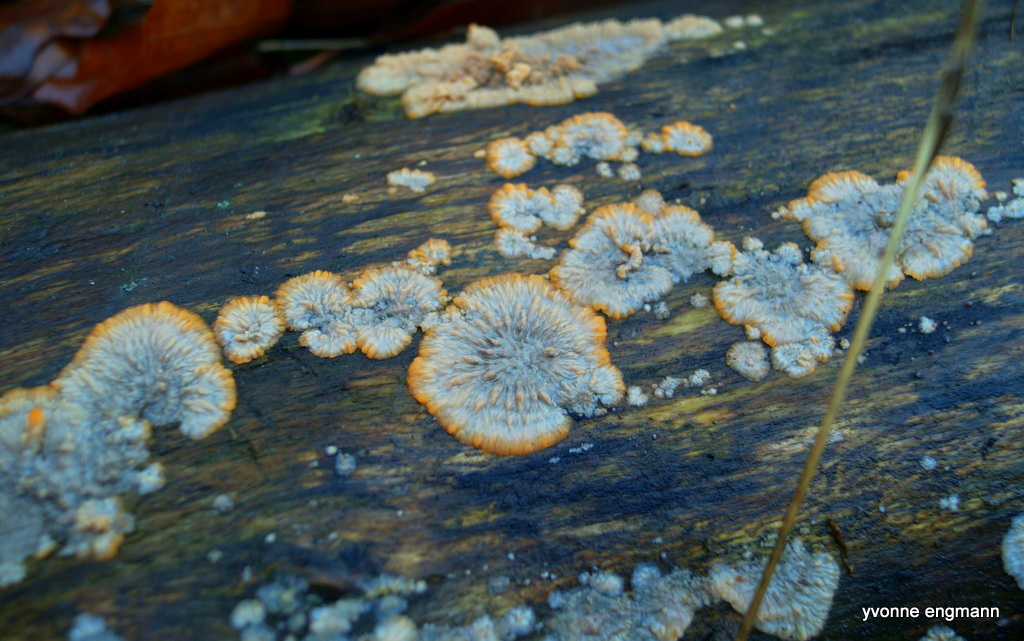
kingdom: Fungi
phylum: Basidiomycota
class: Agaricomycetes
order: Polyporales
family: Meruliaceae
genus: Phlebia
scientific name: Phlebia radiata
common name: stråle-åresvamp
